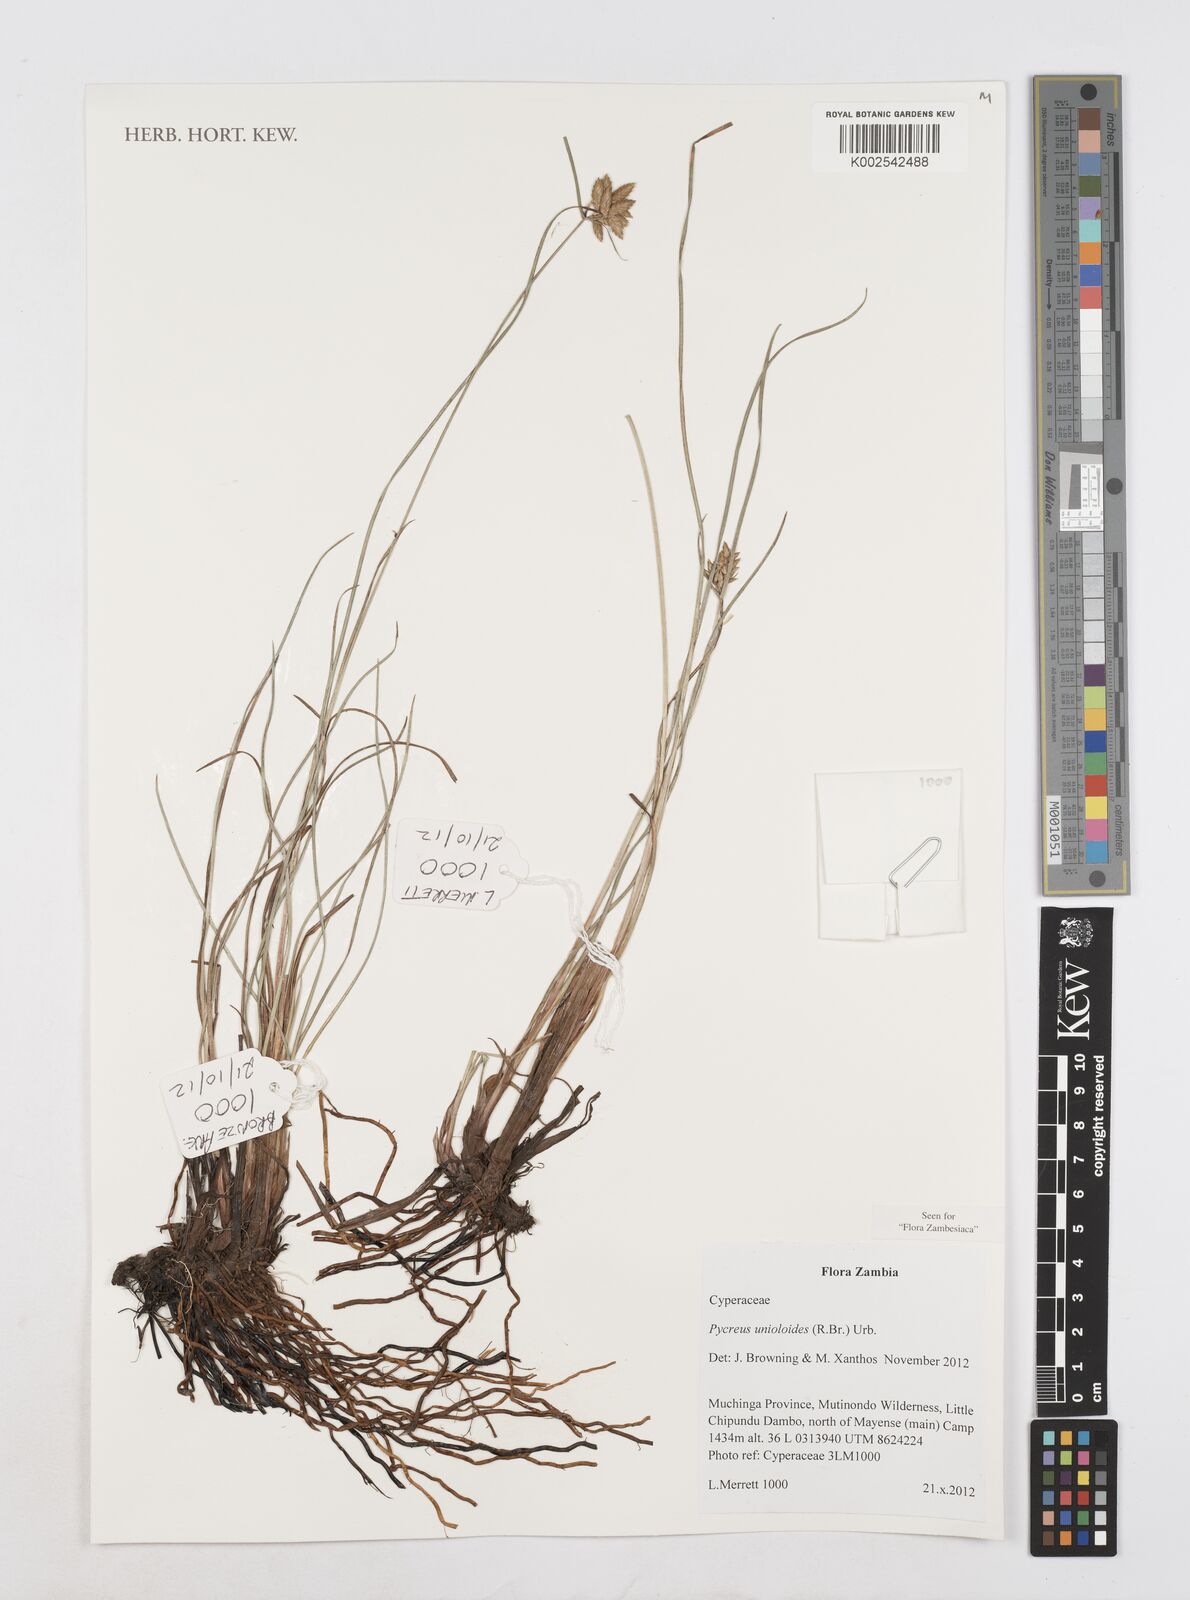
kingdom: Plantae
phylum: Tracheophyta
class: Liliopsida
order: Poales
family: Cyperaceae
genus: Cyperus
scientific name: Cyperus unioloides
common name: Uniola flatsedge
